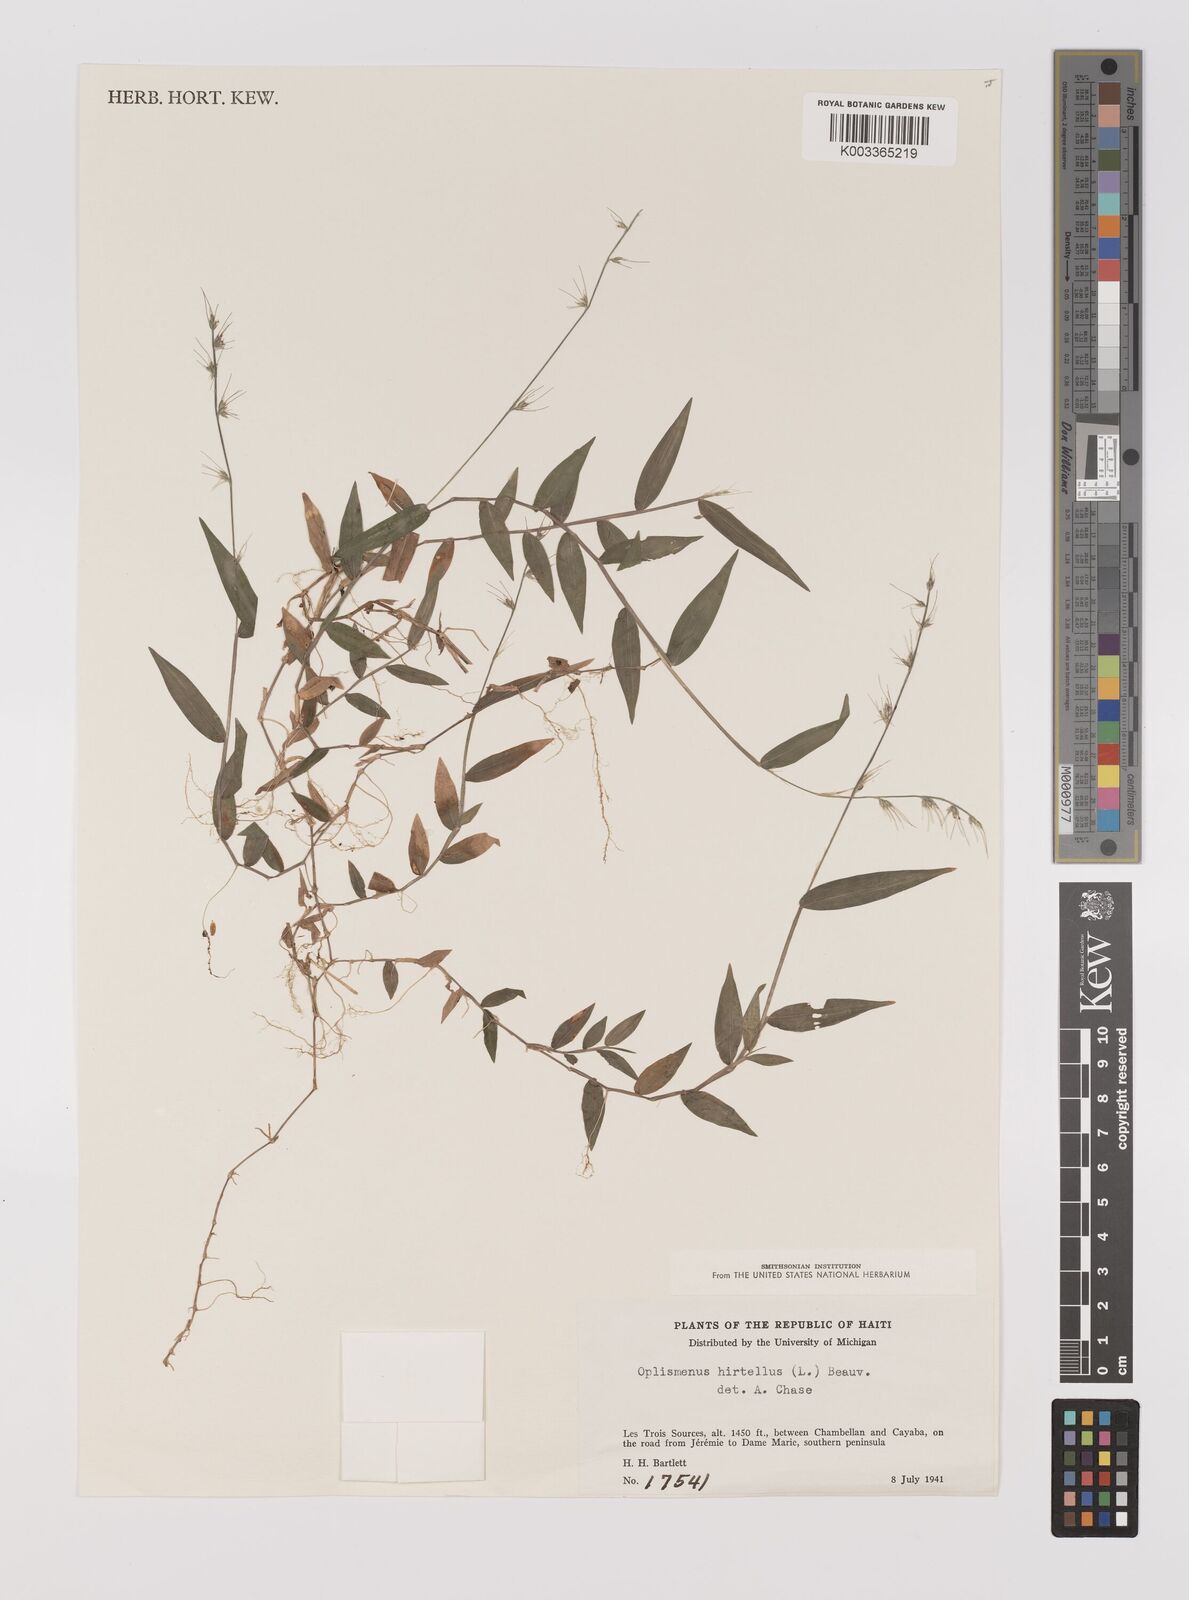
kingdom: Plantae
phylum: Tracheophyta
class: Liliopsida
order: Poales
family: Poaceae
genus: Oplismenus
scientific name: Oplismenus hirtellus
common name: Basketgrass
